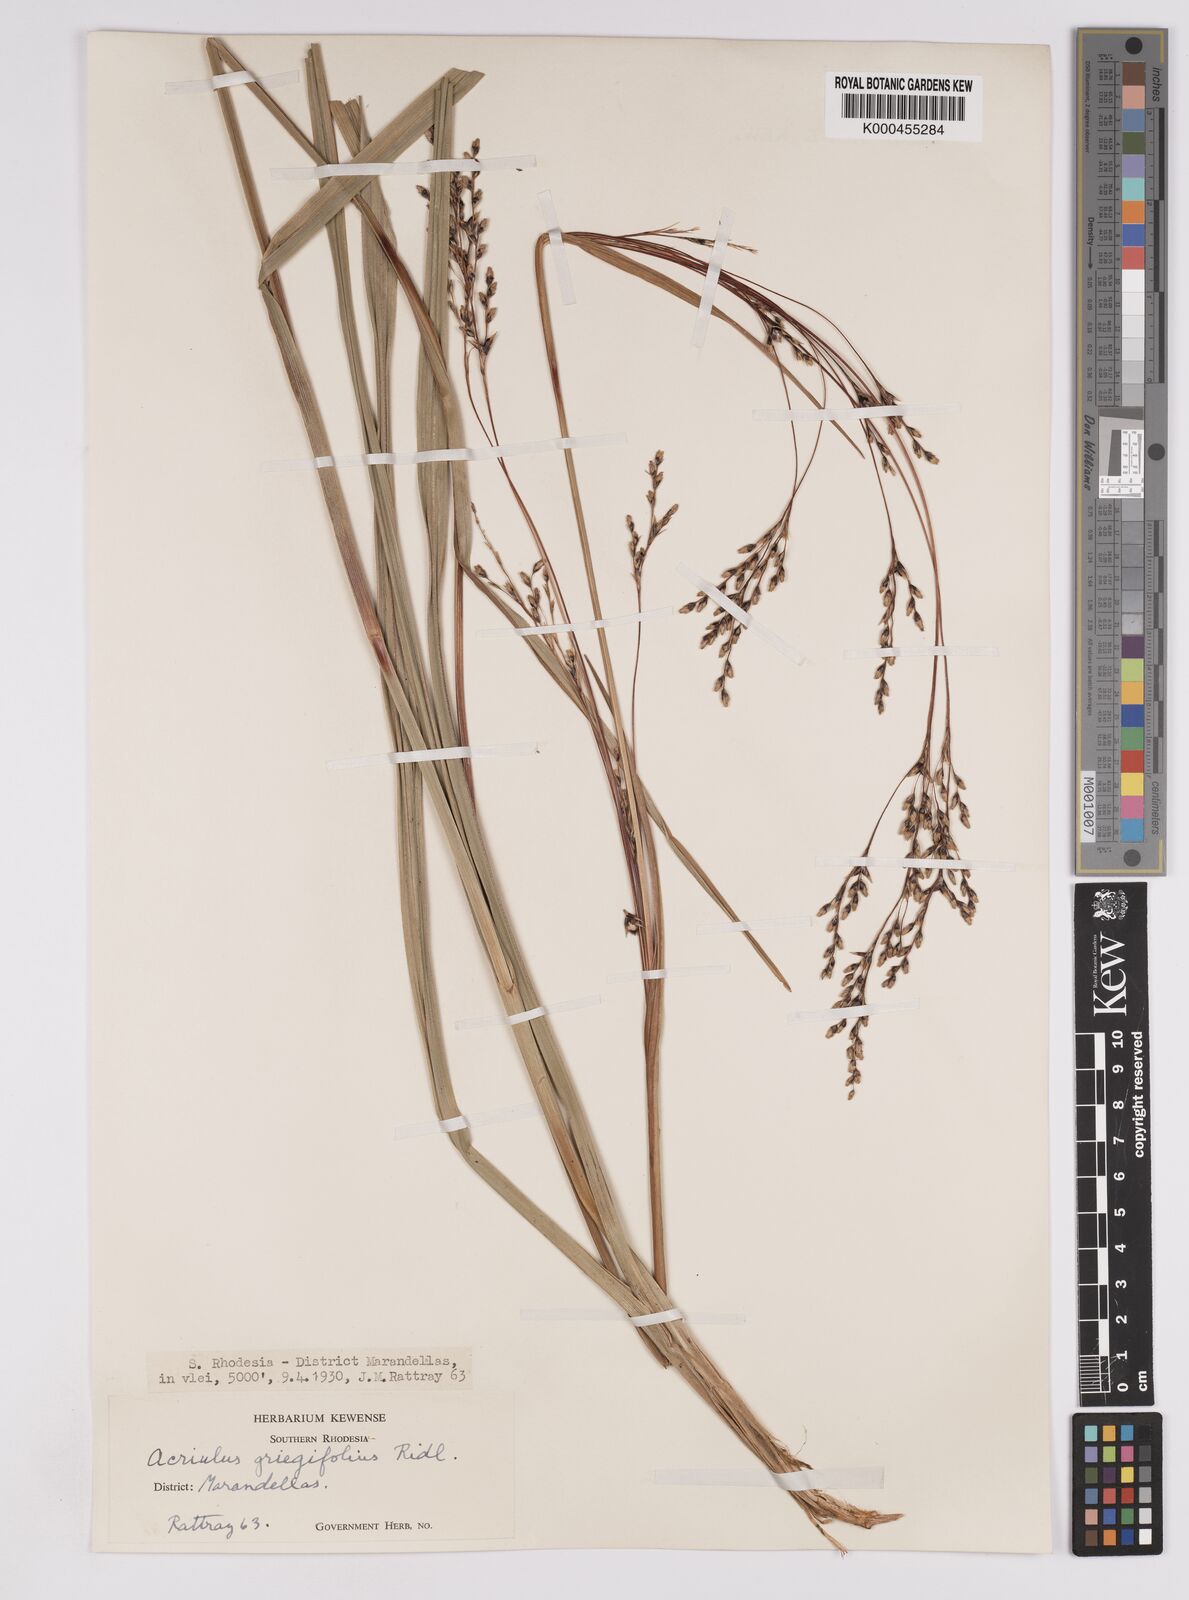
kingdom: Plantae
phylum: Tracheophyta
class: Liliopsida
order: Poales
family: Cyperaceae
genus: Scleria
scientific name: Scleria greigiifolia
